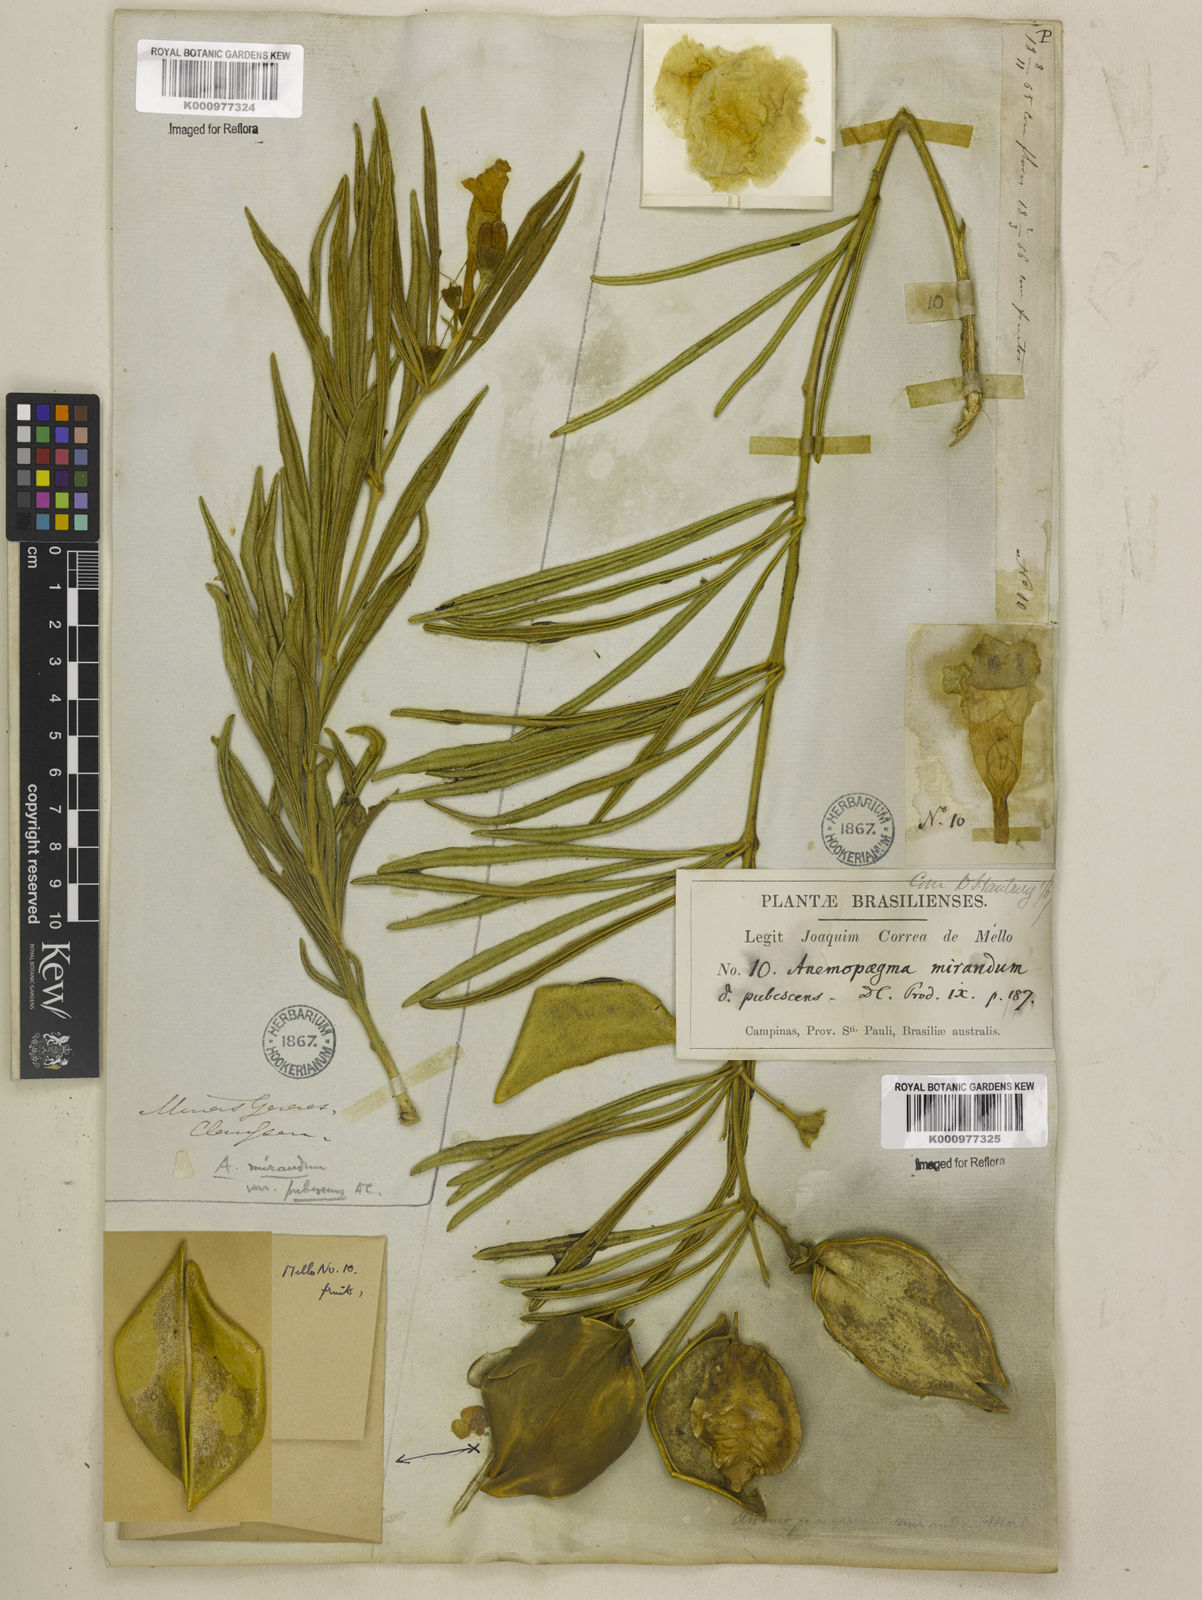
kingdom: Plantae
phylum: Tracheophyta
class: Magnoliopsida
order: Lamiales
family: Bignoniaceae
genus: Anemopaegma
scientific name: Anemopaegma arvense
